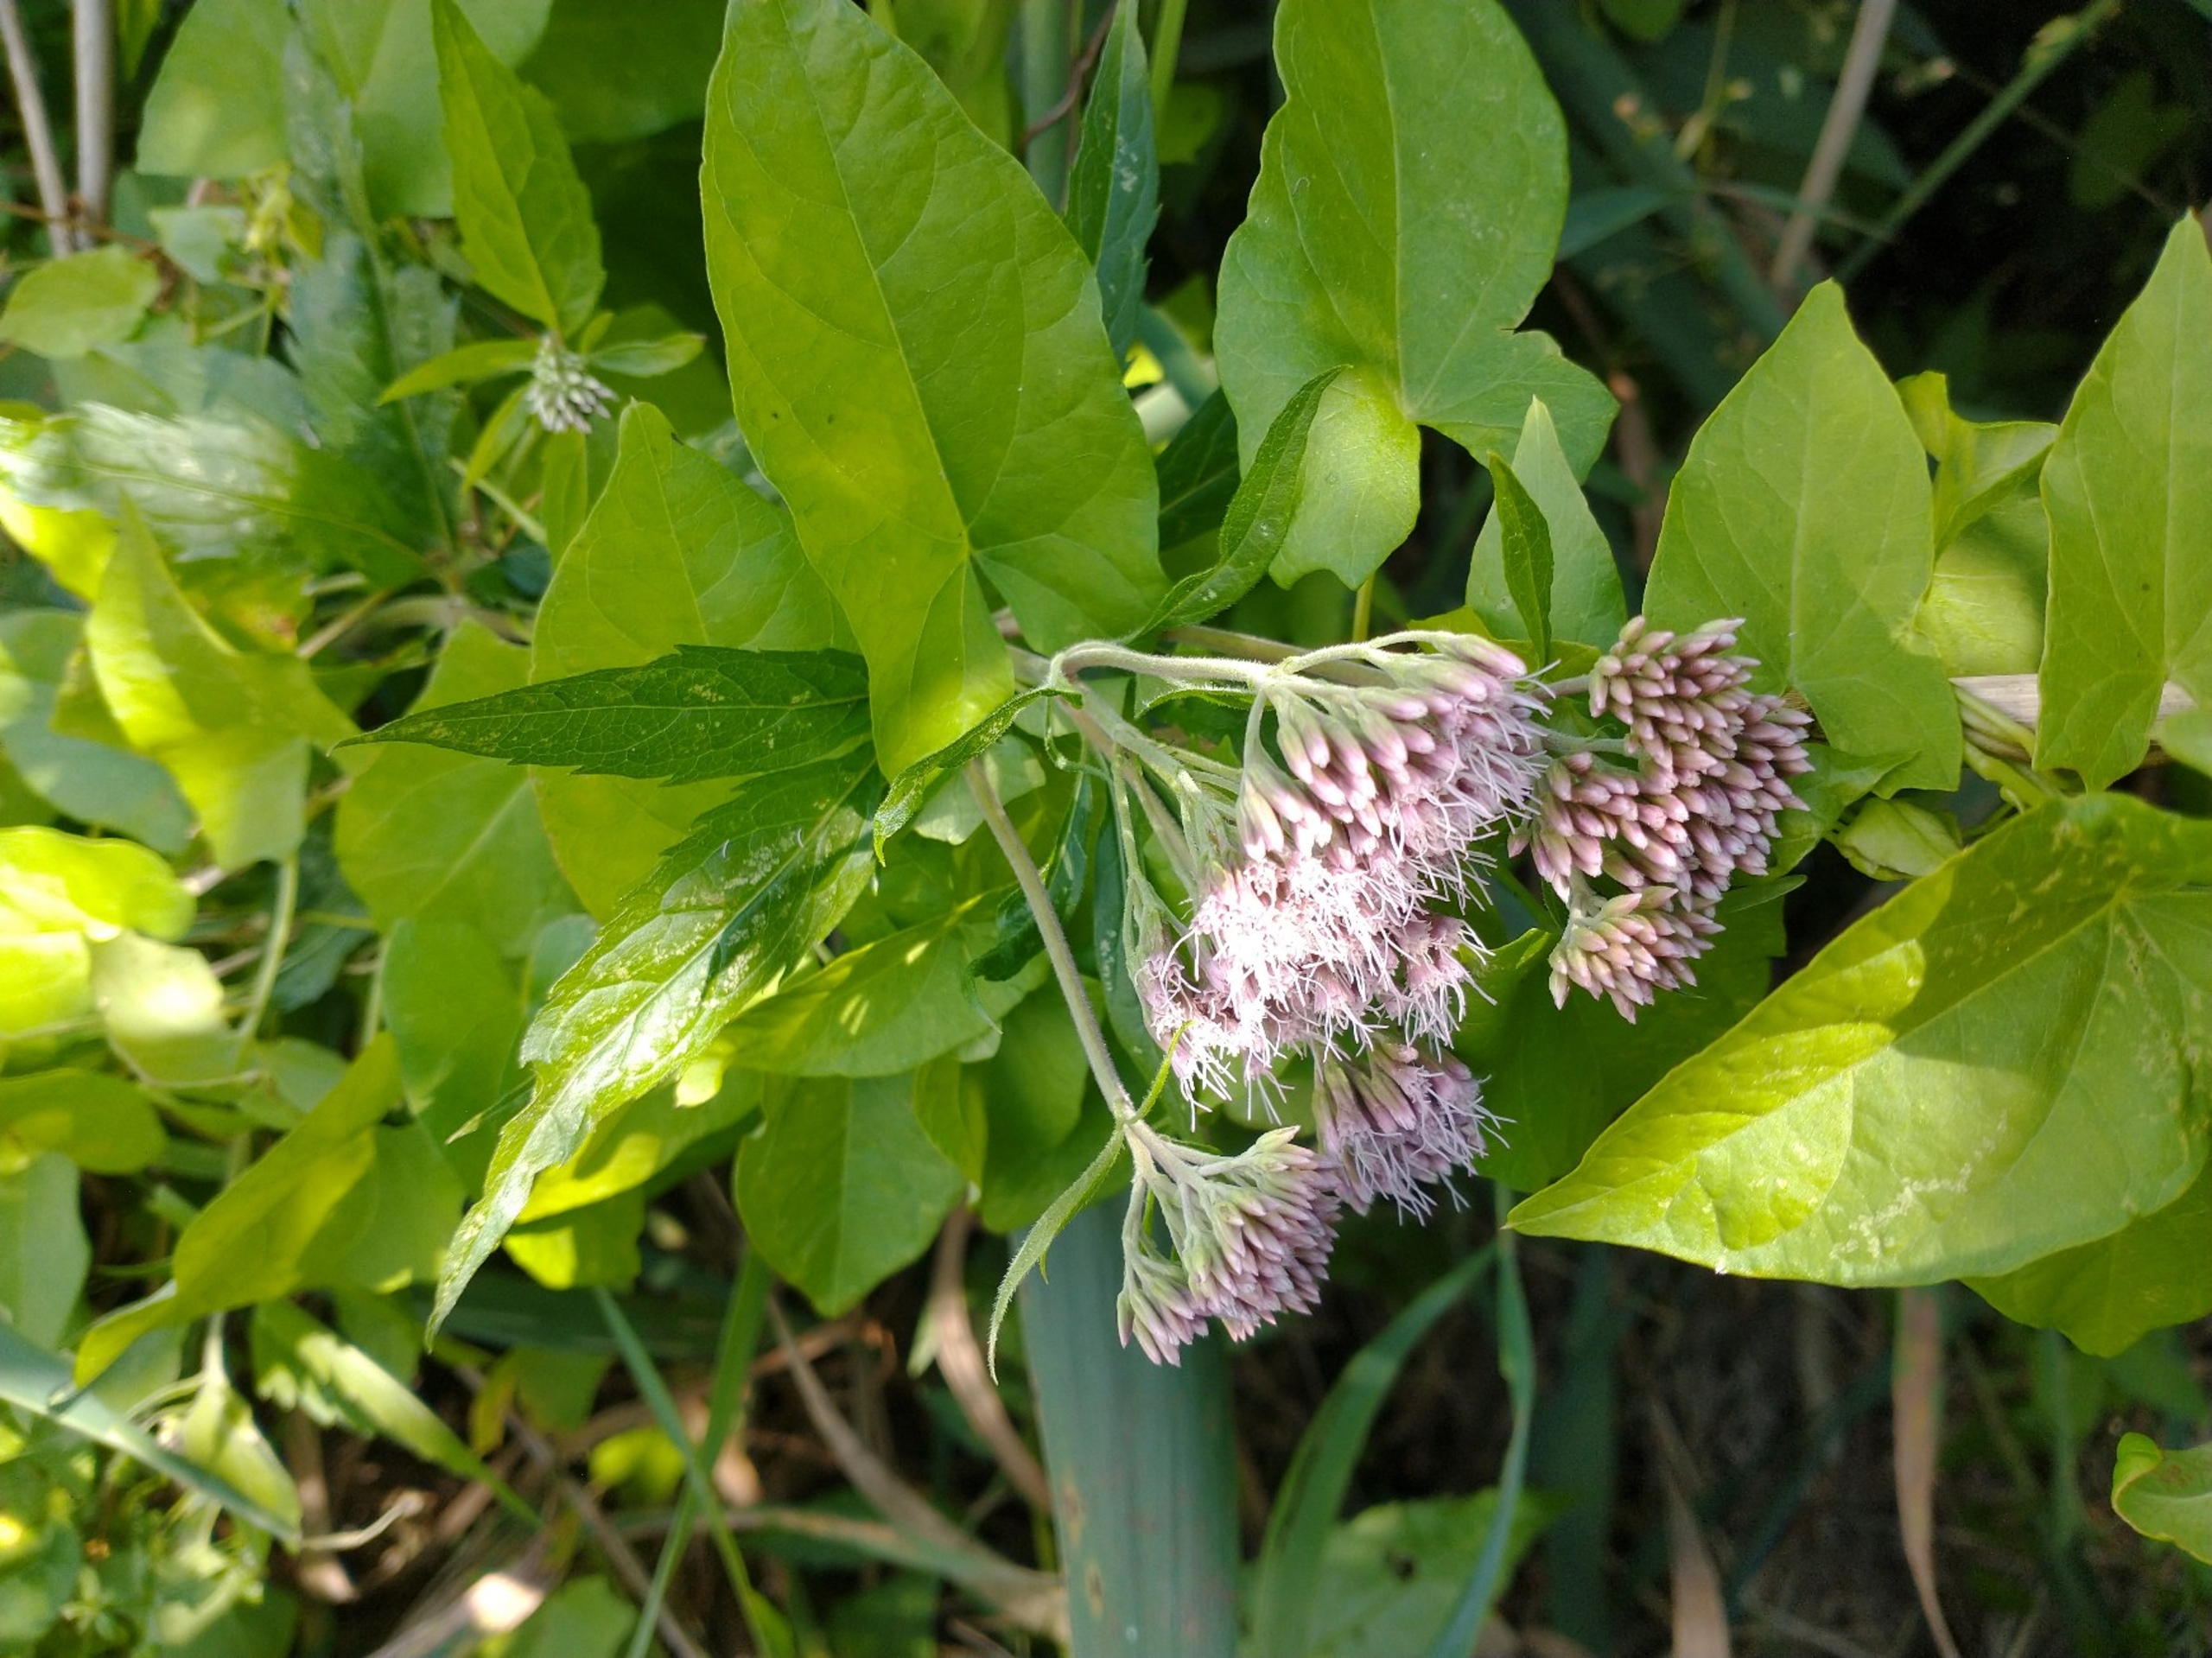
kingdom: Plantae
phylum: Tracheophyta
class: Magnoliopsida
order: Asterales
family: Asteraceae
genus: Eupatorium
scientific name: Eupatorium cannabinum
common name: Hjortetrøst
